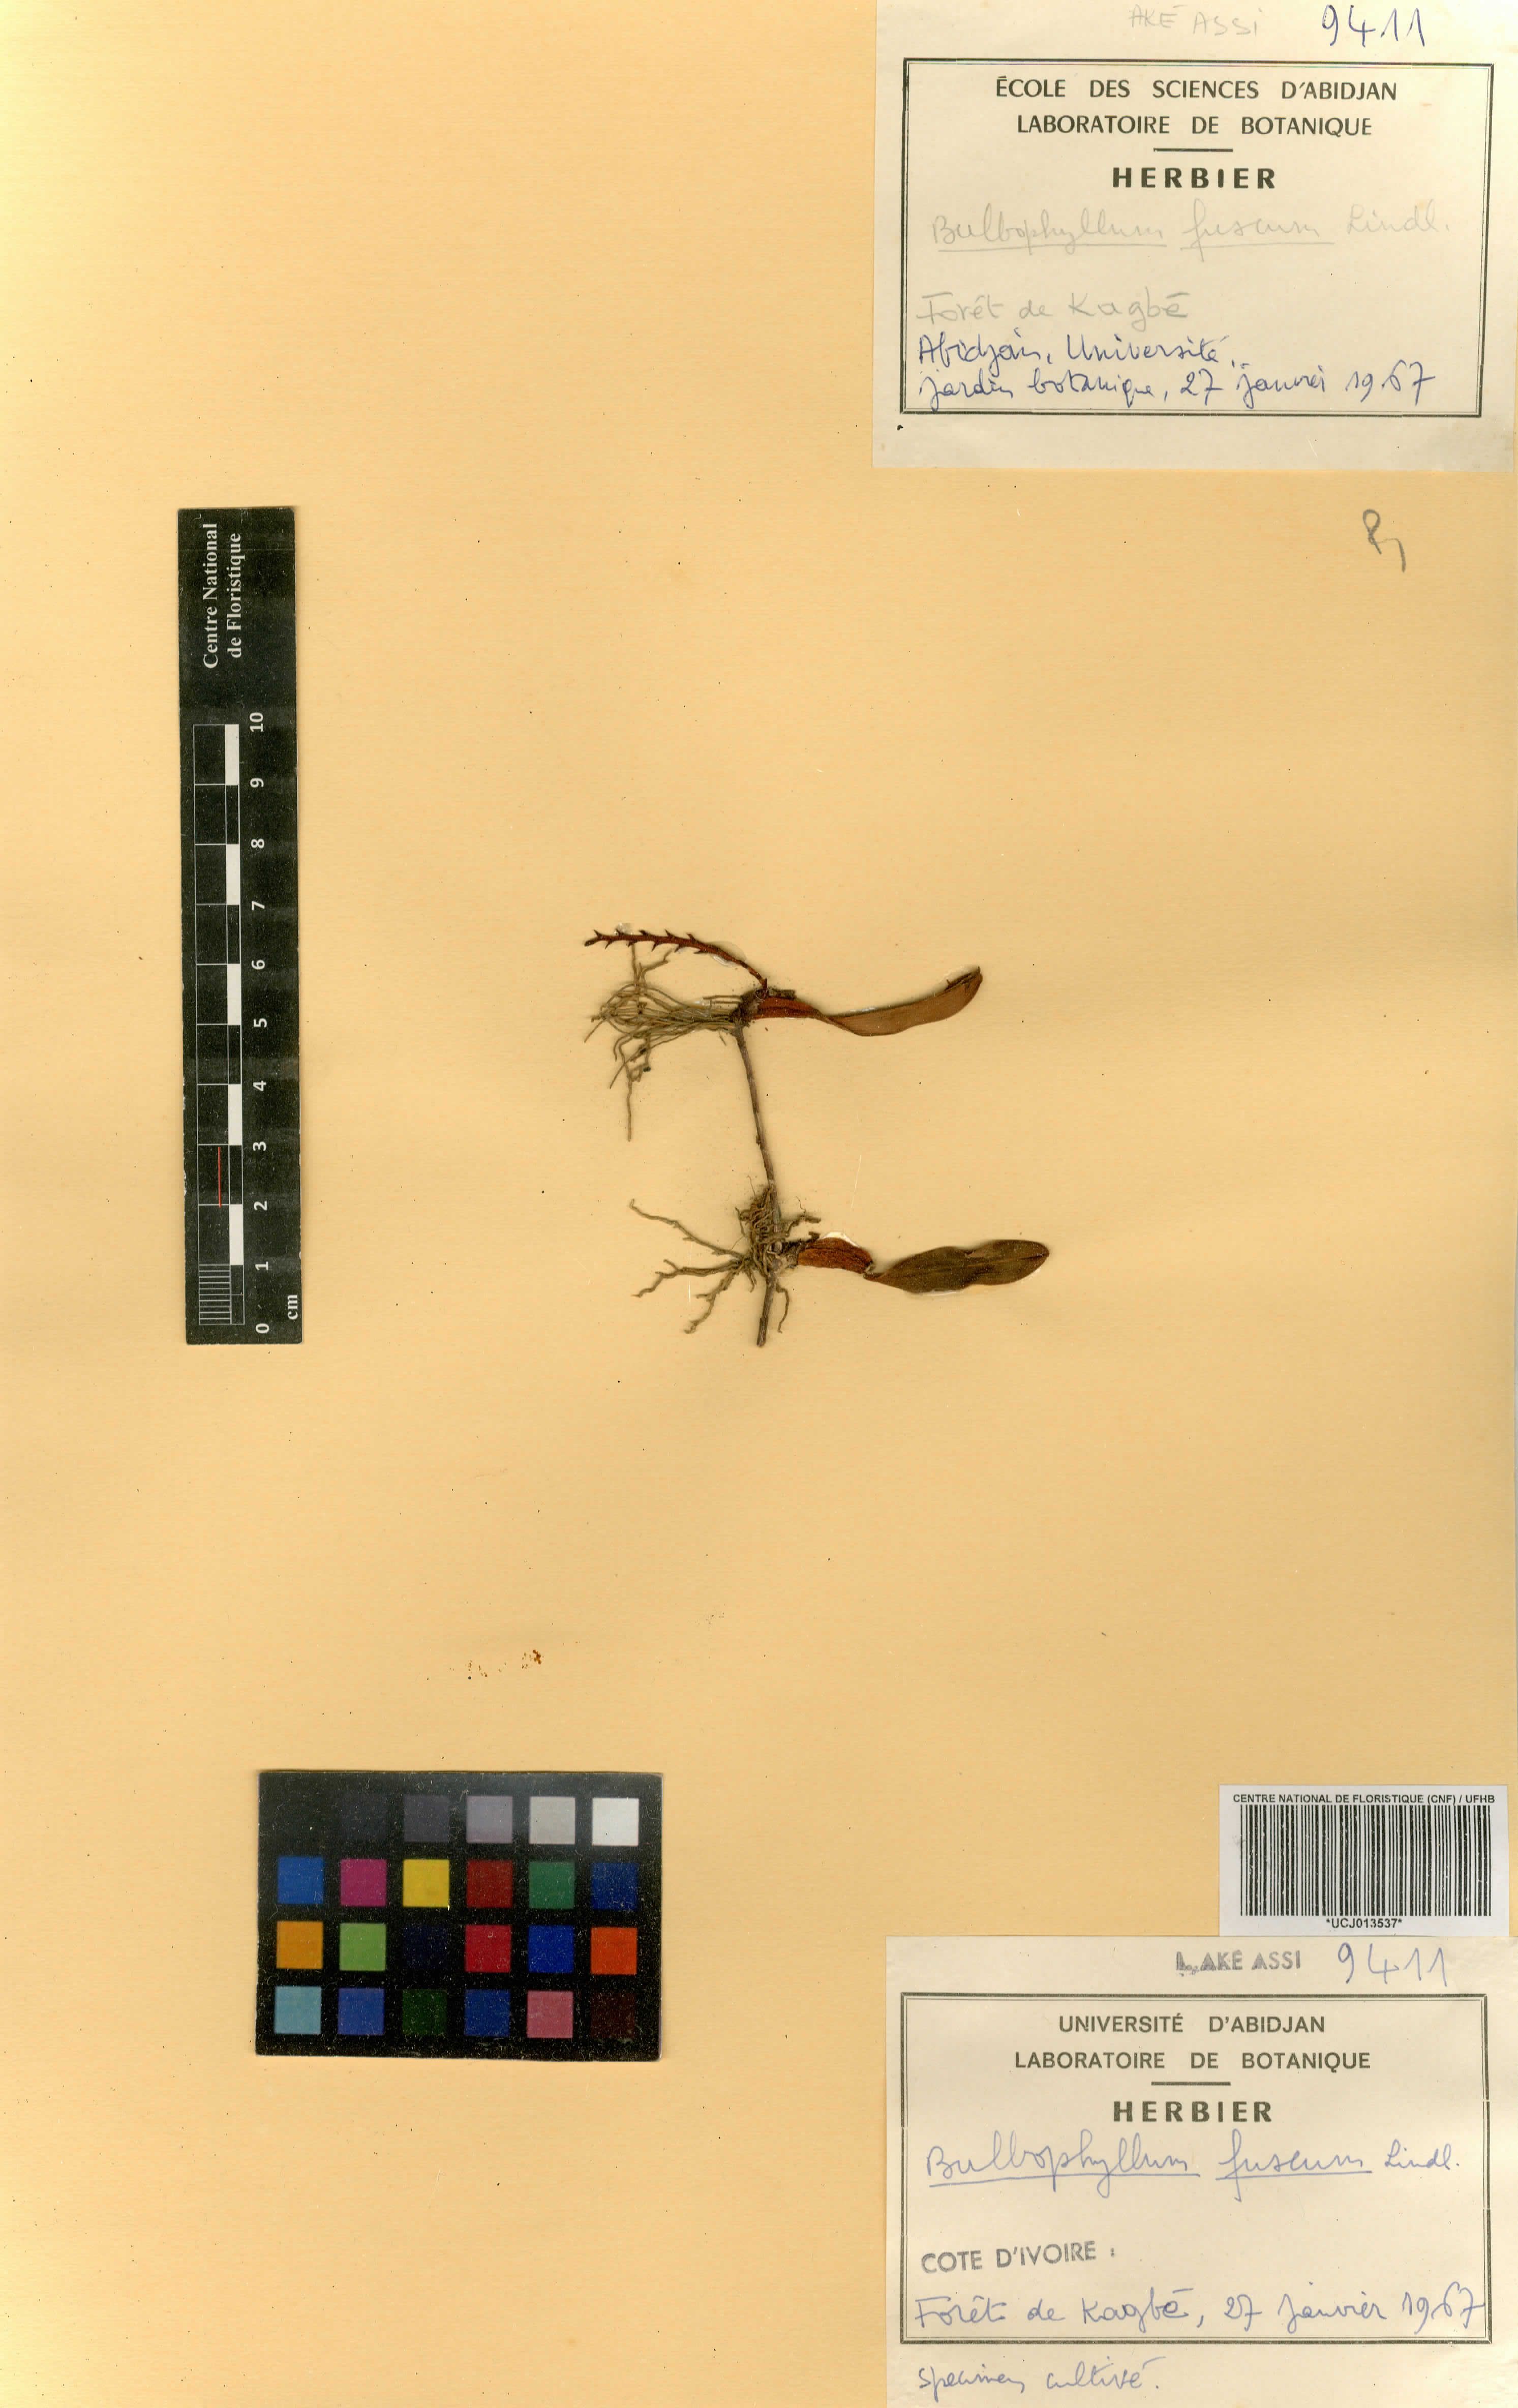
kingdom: Plantae
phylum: Tracheophyta
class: Liliopsida
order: Asparagales
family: Orchidaceae
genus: Bulbophyllum
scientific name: Bulbophyllum fuscum
